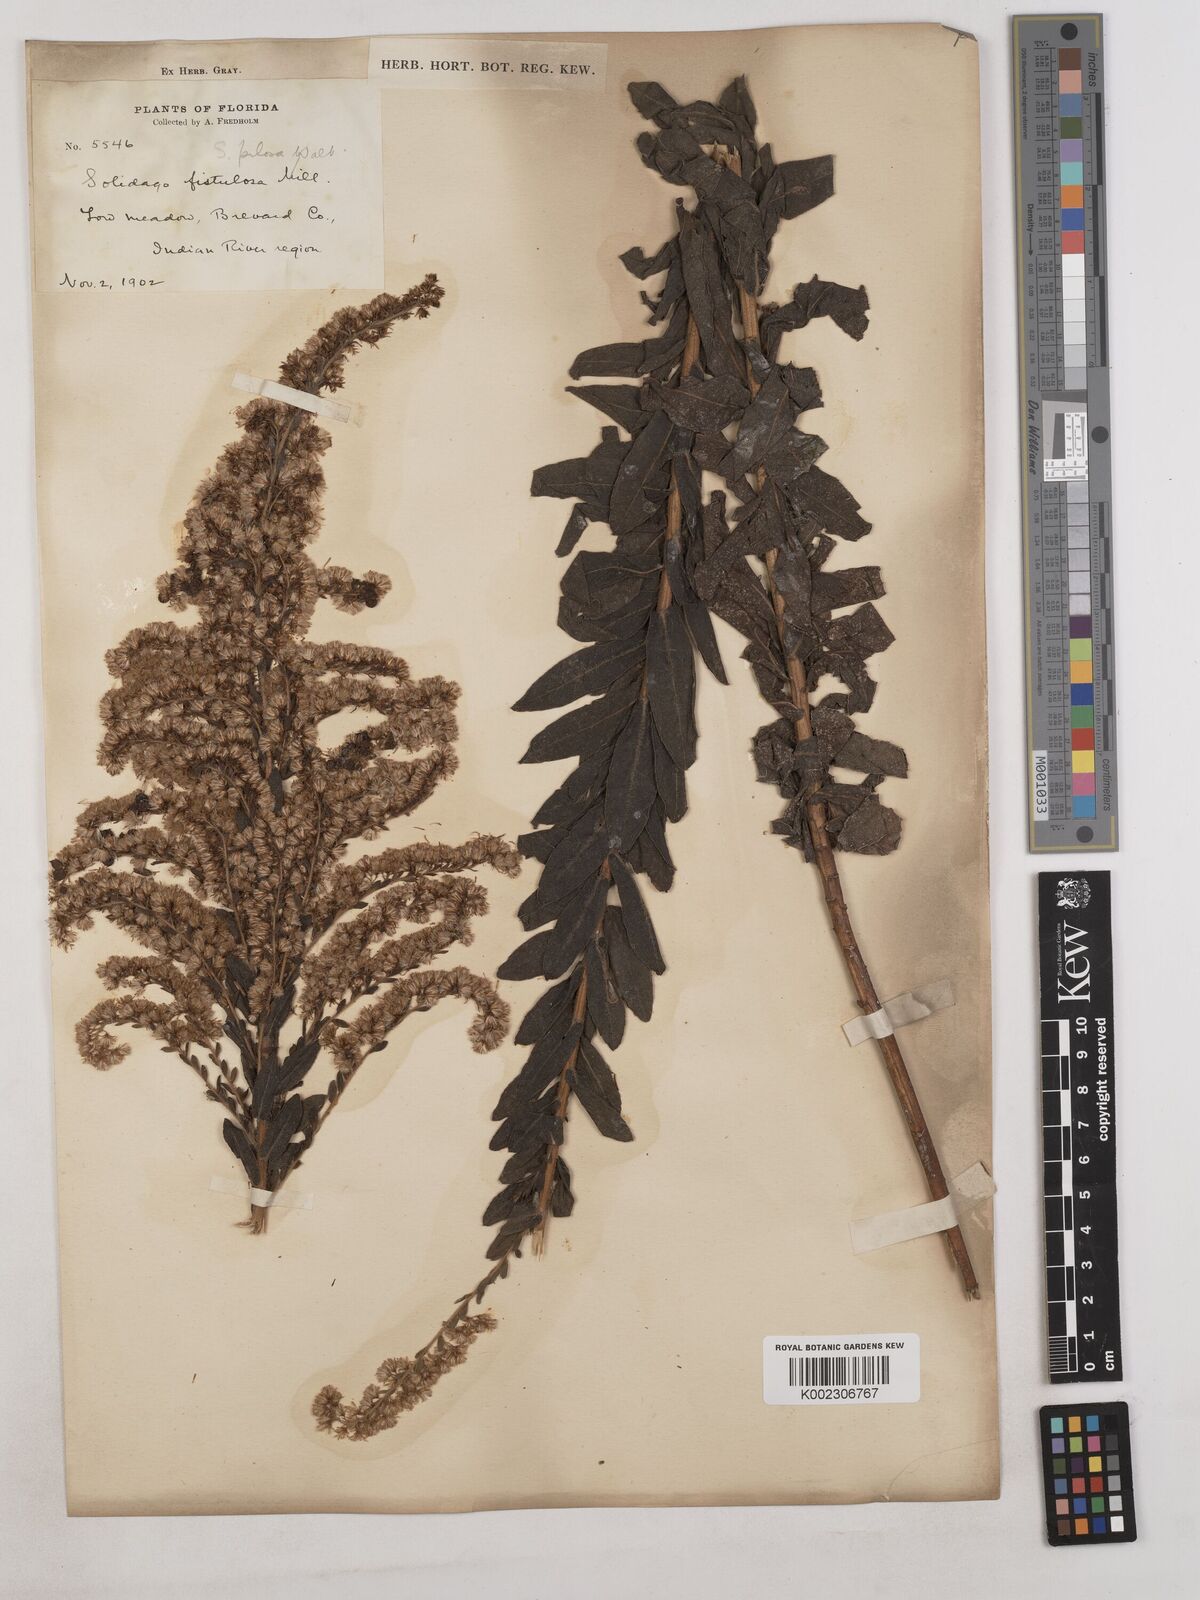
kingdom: Plantae
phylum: Tracheophyta
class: Magnoliopsida
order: Asterales
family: Asteraceae
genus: Solidago
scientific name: Solidago fistulosa
